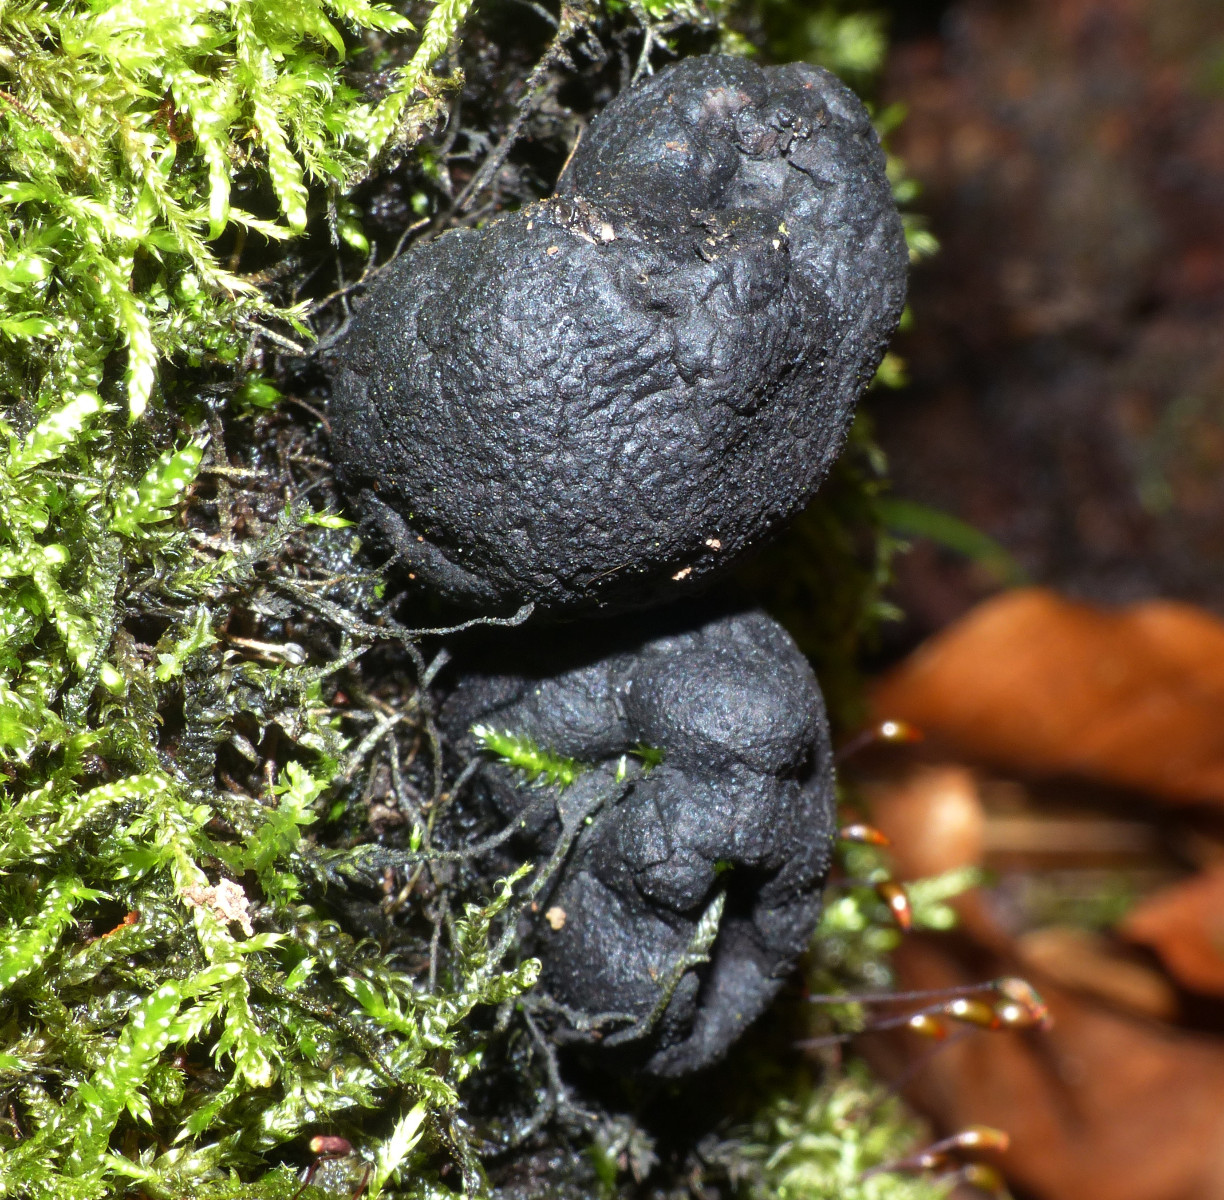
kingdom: Fungi
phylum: Ascomycota
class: Sordariomycetes
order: Xylariales
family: Xylariaceae
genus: Xylaria
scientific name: Xylaria polymorpha
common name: kølle-stødsvamp
